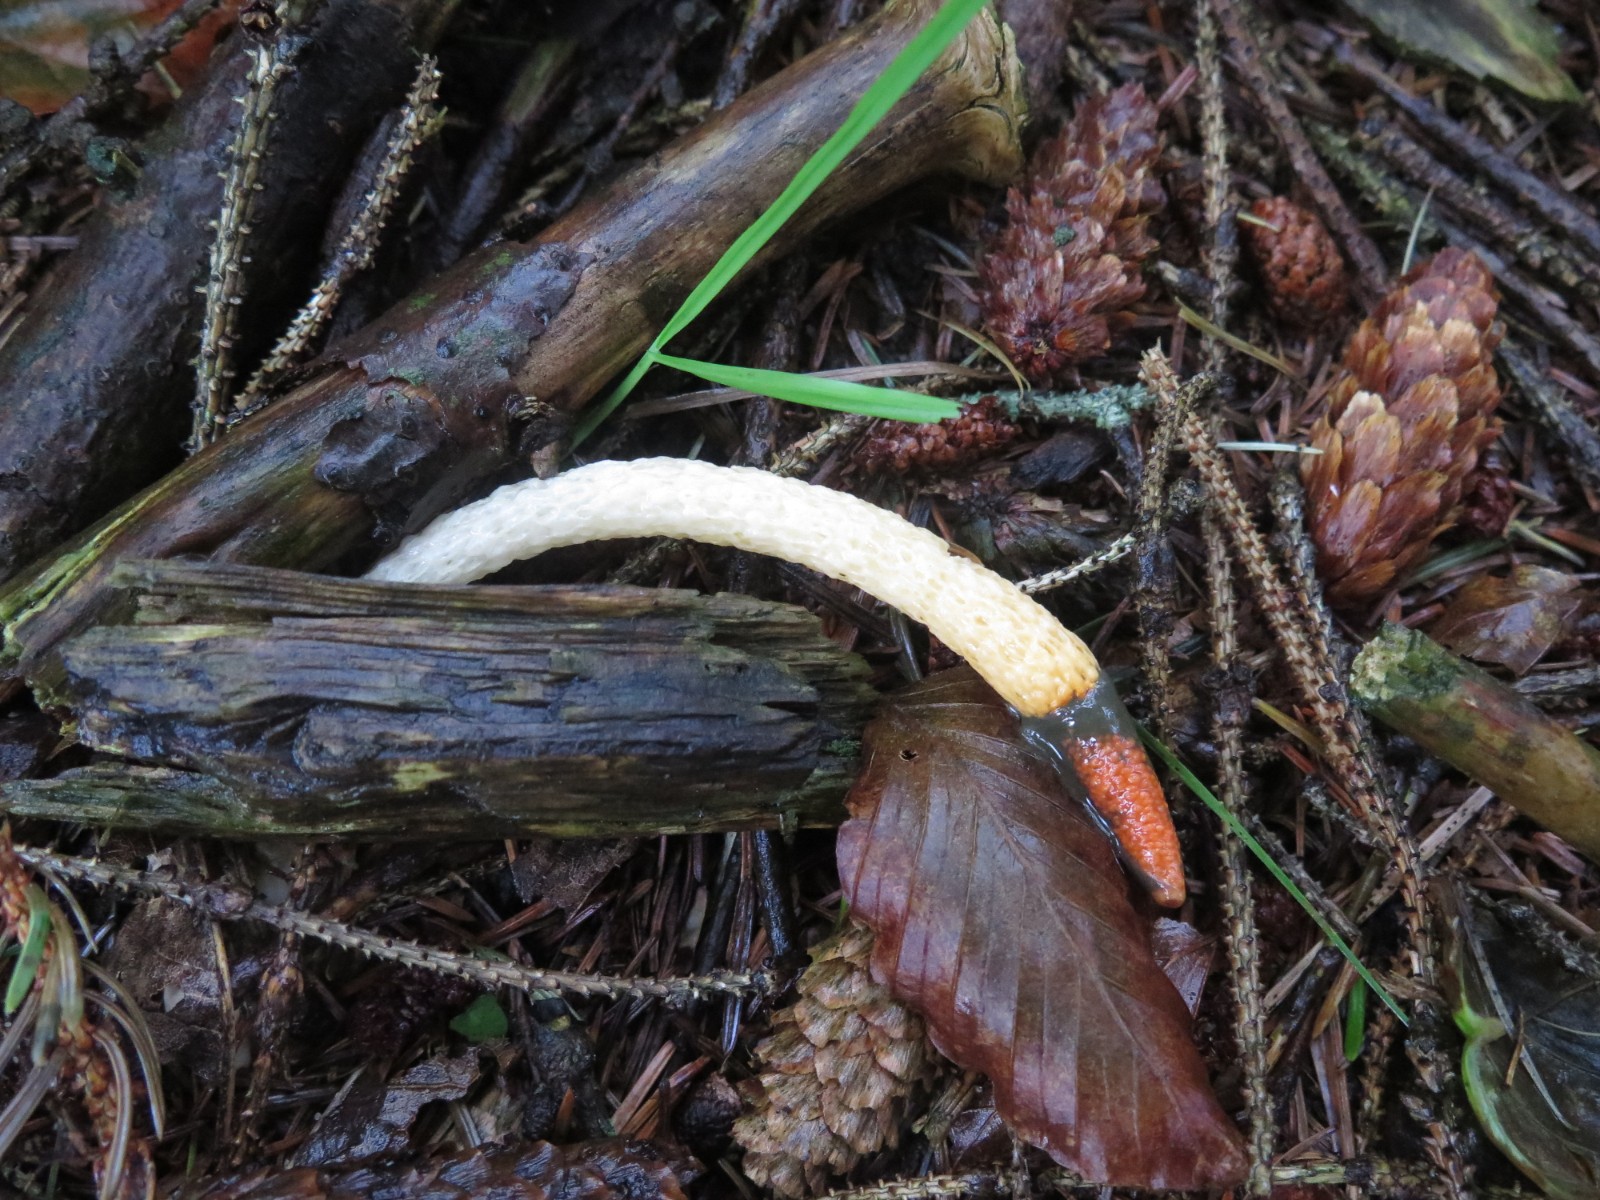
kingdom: Fungi
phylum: Basidiomycota
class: Agaricomycetes
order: Phallales
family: Phallaceae
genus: Mutinus
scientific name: Mutinus caninus
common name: hunde-stinksvamp
